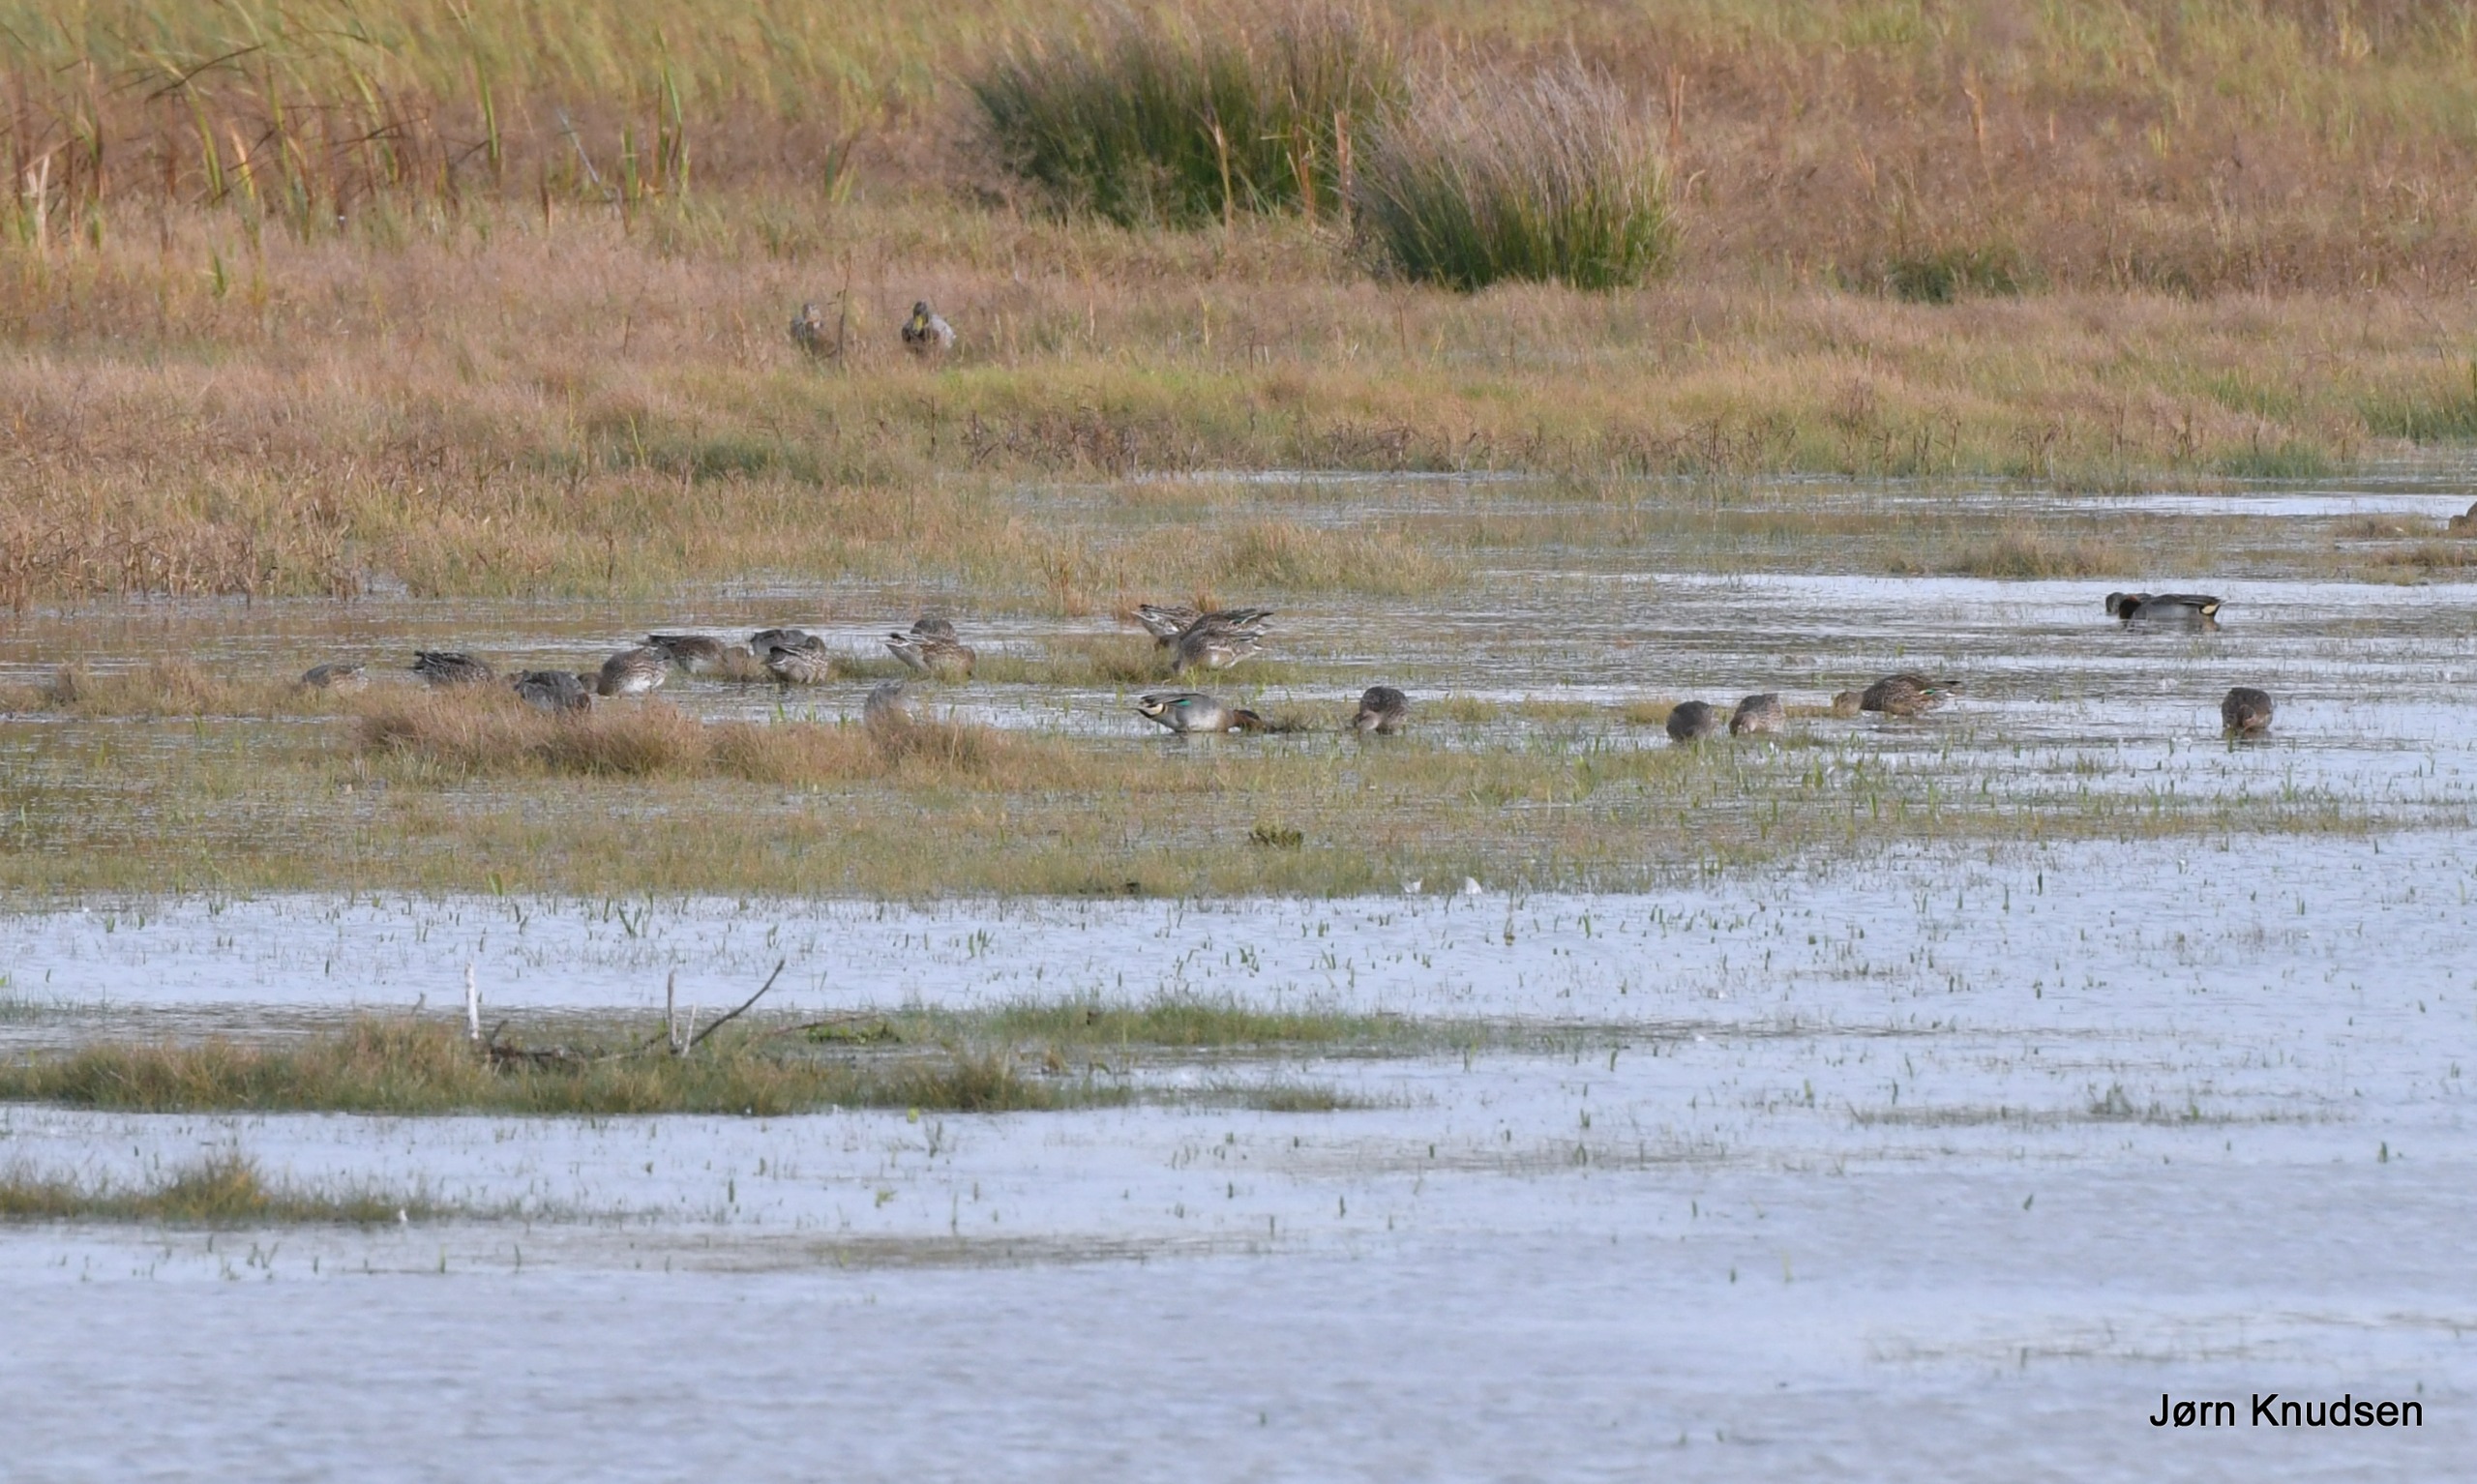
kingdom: Animalia
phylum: Chordata
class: Aves
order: Anseriformes
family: Anatidae
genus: Anas
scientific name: Anas crecca
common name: Krikand
